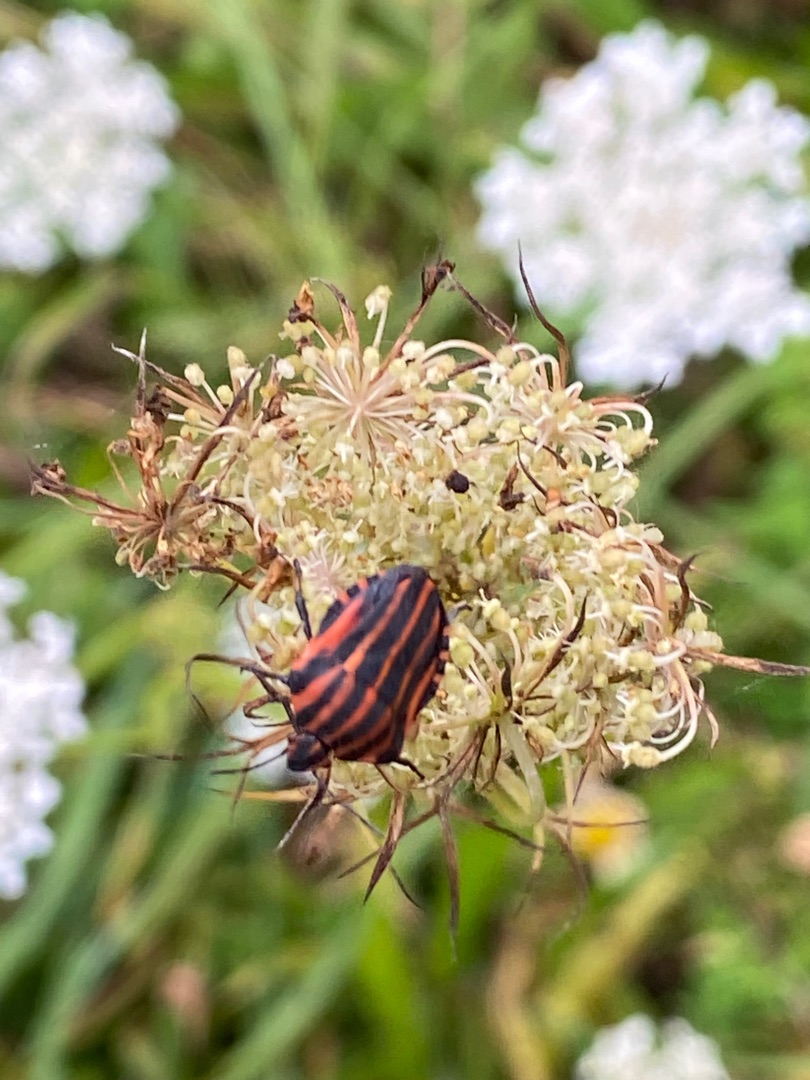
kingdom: Animalia
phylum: Arthropoda
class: Insecta
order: Hemiptera
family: Pentatomidae
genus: Graphosoma
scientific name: Graphosoma italicum
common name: Stribetæge
